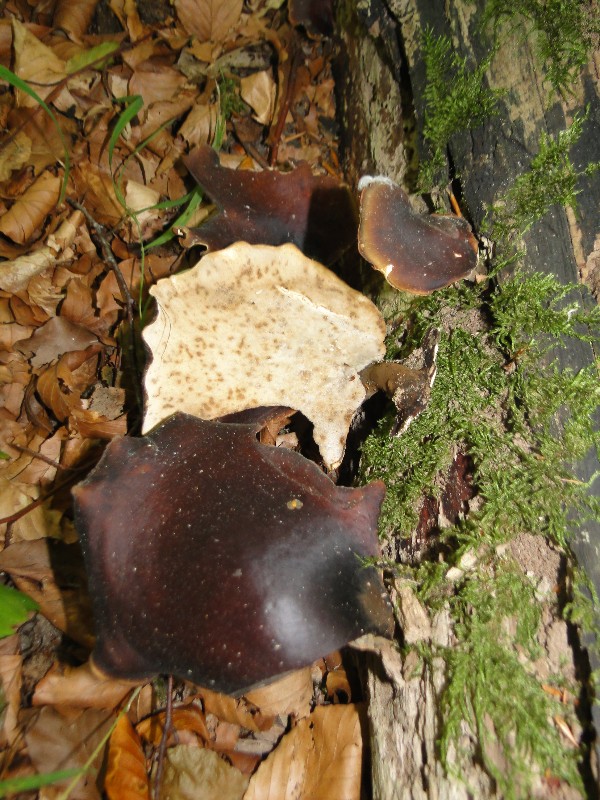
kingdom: Fungi
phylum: Basidiomycota
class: Agaricomycetes
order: Polyporales
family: Polyporaceae
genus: Picipes
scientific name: Picipes badius
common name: kastaniebrun stilkporesvamp
